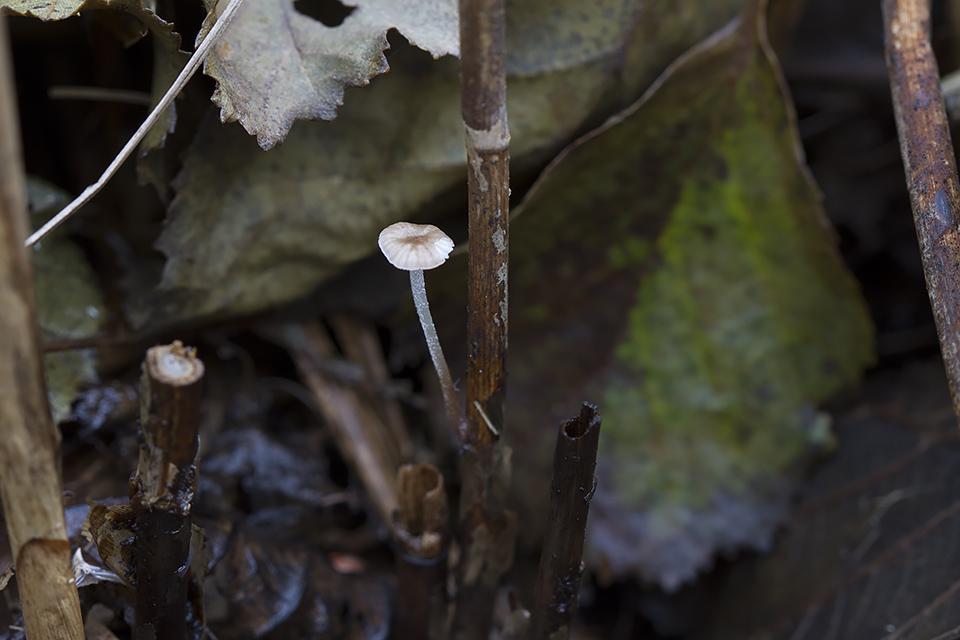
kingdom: Fungi
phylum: Basidiomycota
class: Agaricomycetes
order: Agaricales
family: Mycenaceae
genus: Mycena
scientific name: Mycena belliae
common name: tagrørs-huesvamp
